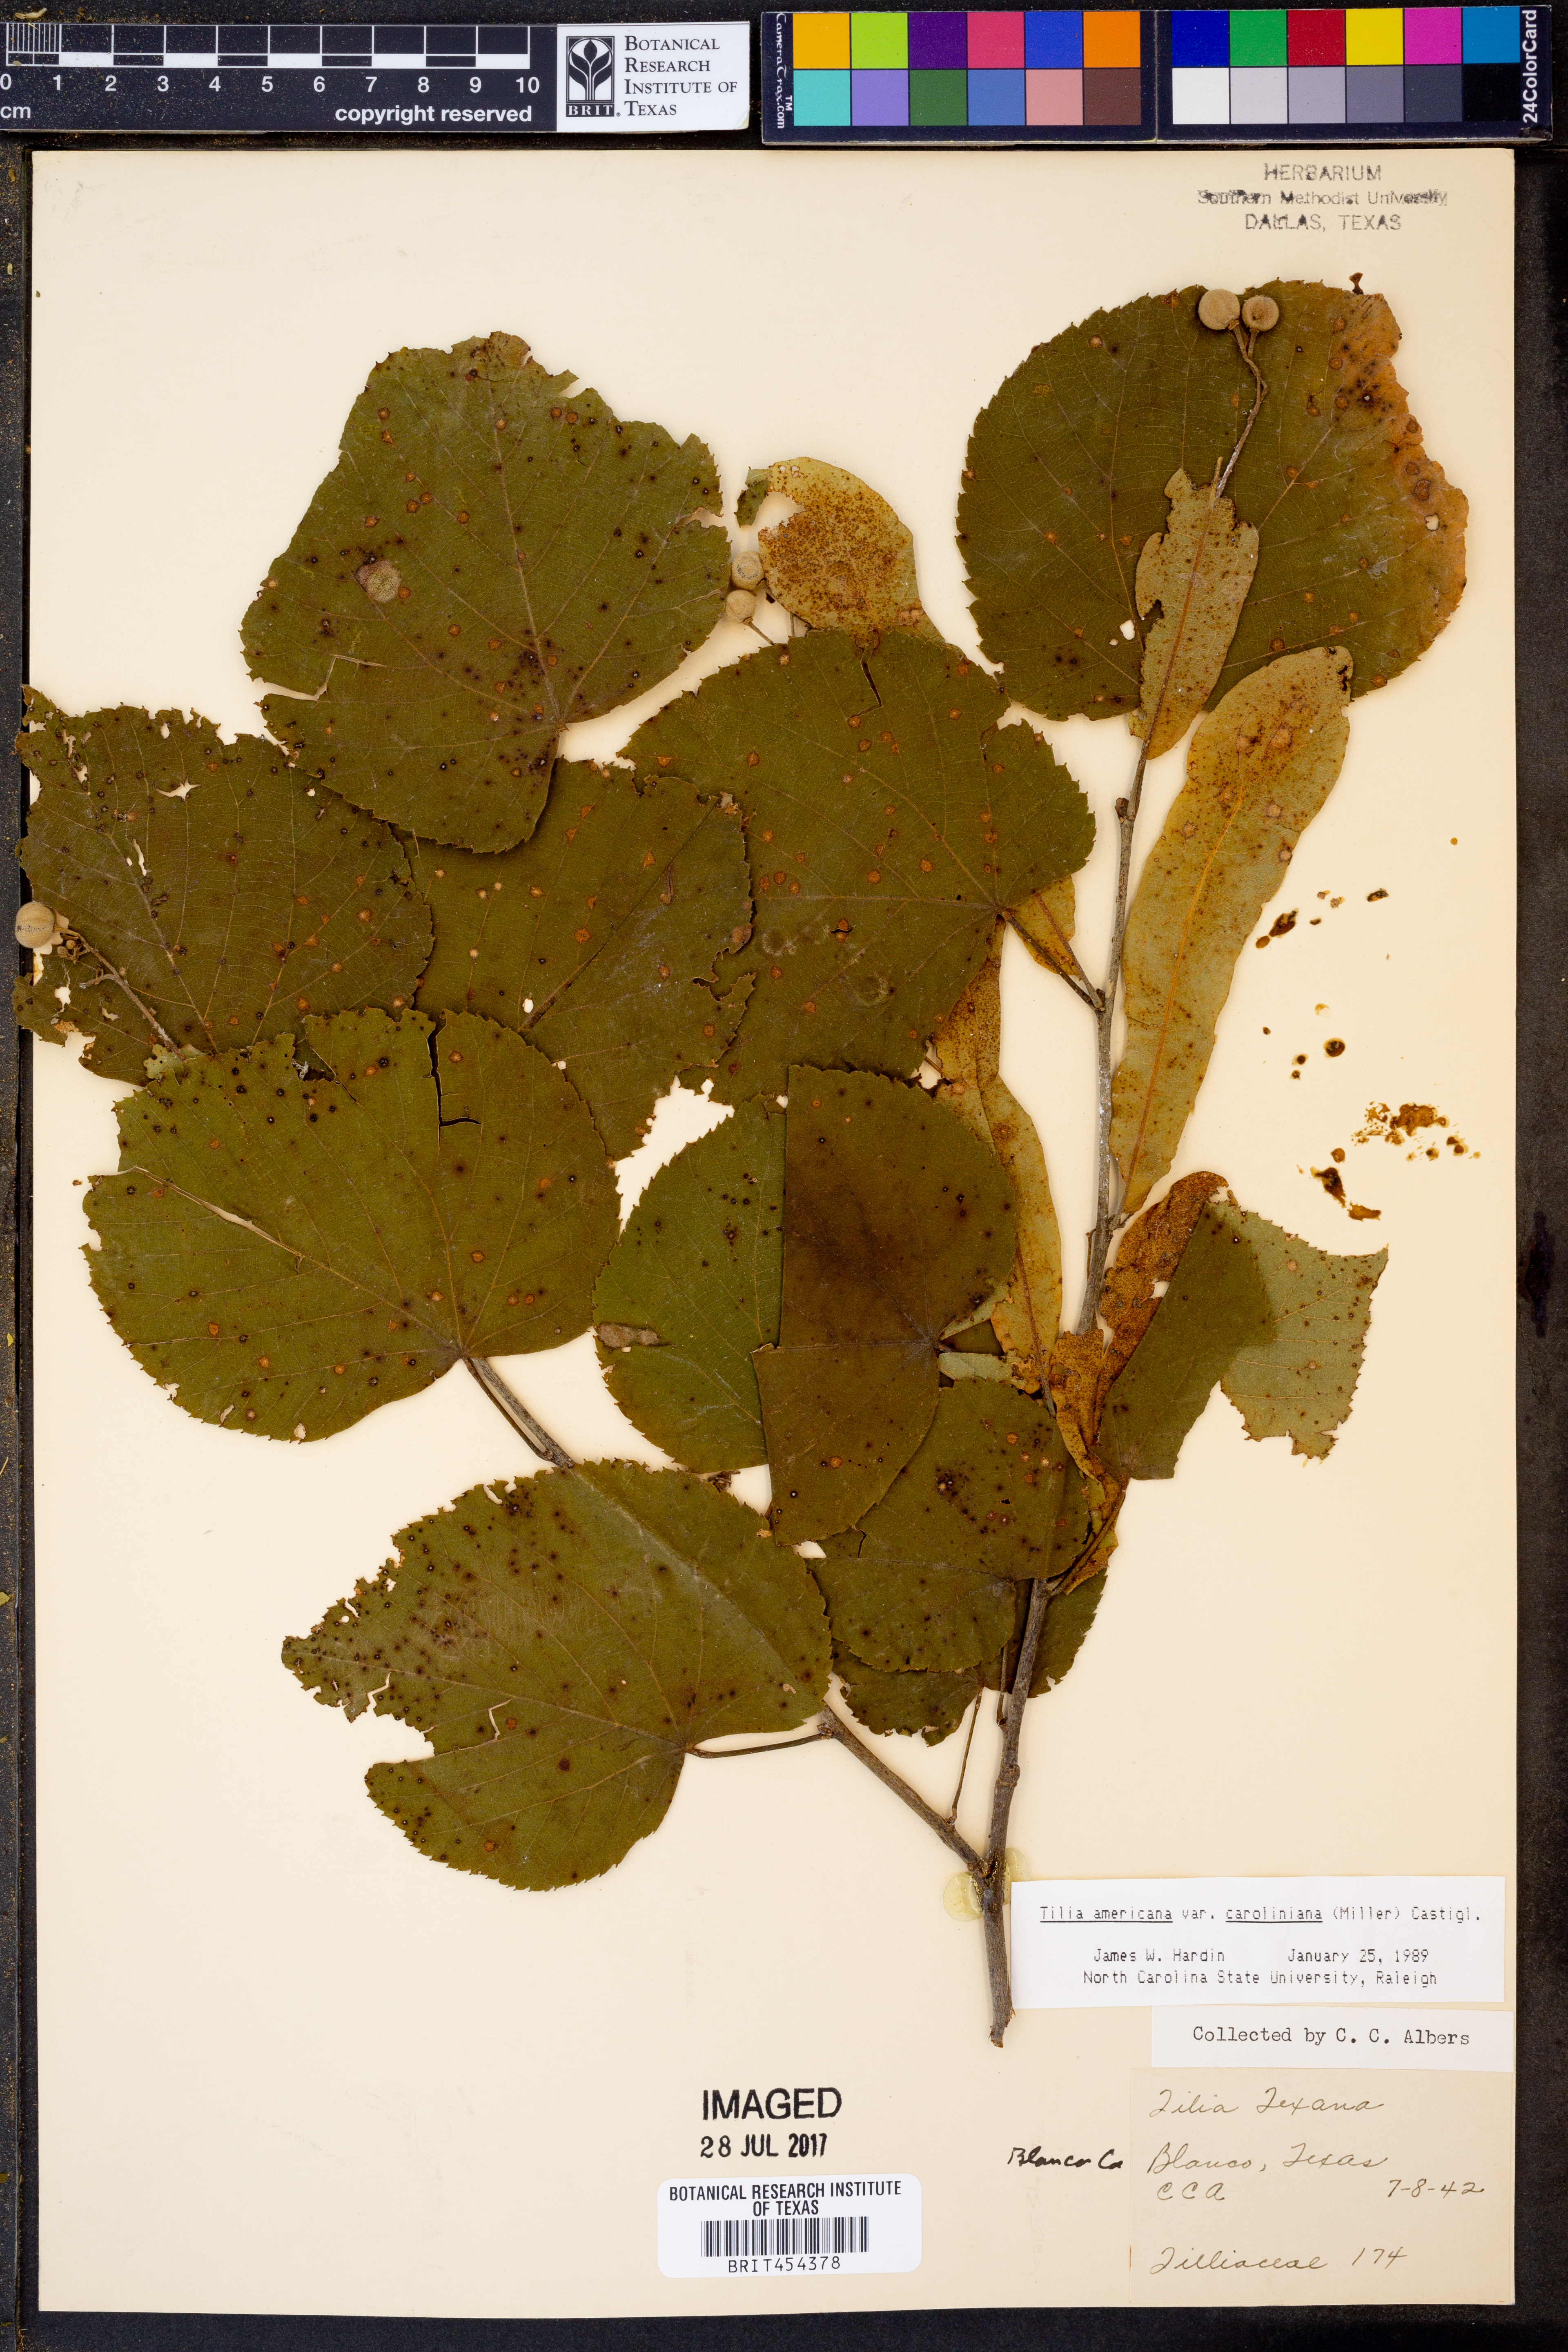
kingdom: Plantae
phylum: Tracheophyta
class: Magnoliopsida
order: Malvales
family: Malvaceae
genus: Tilia
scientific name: Tilia americana
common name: Basswood
